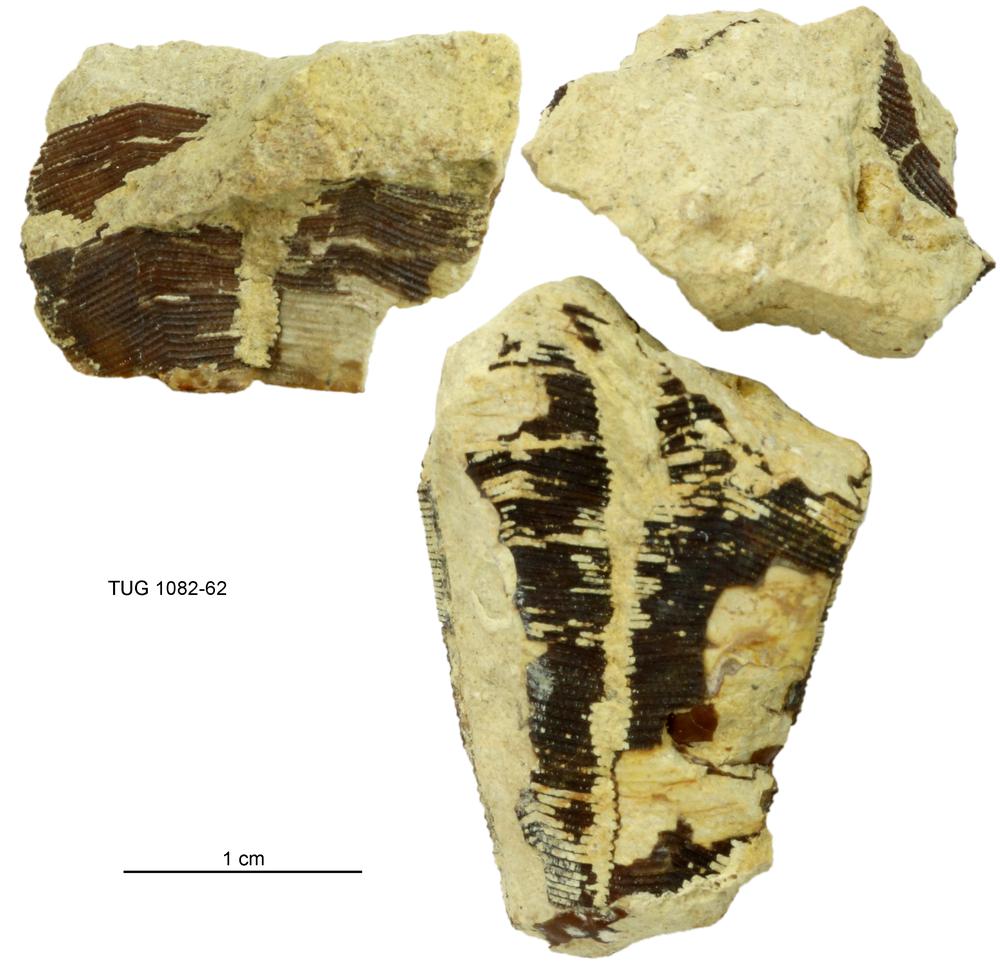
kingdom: Animalia
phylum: Cnidaria
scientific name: Cnidaria
